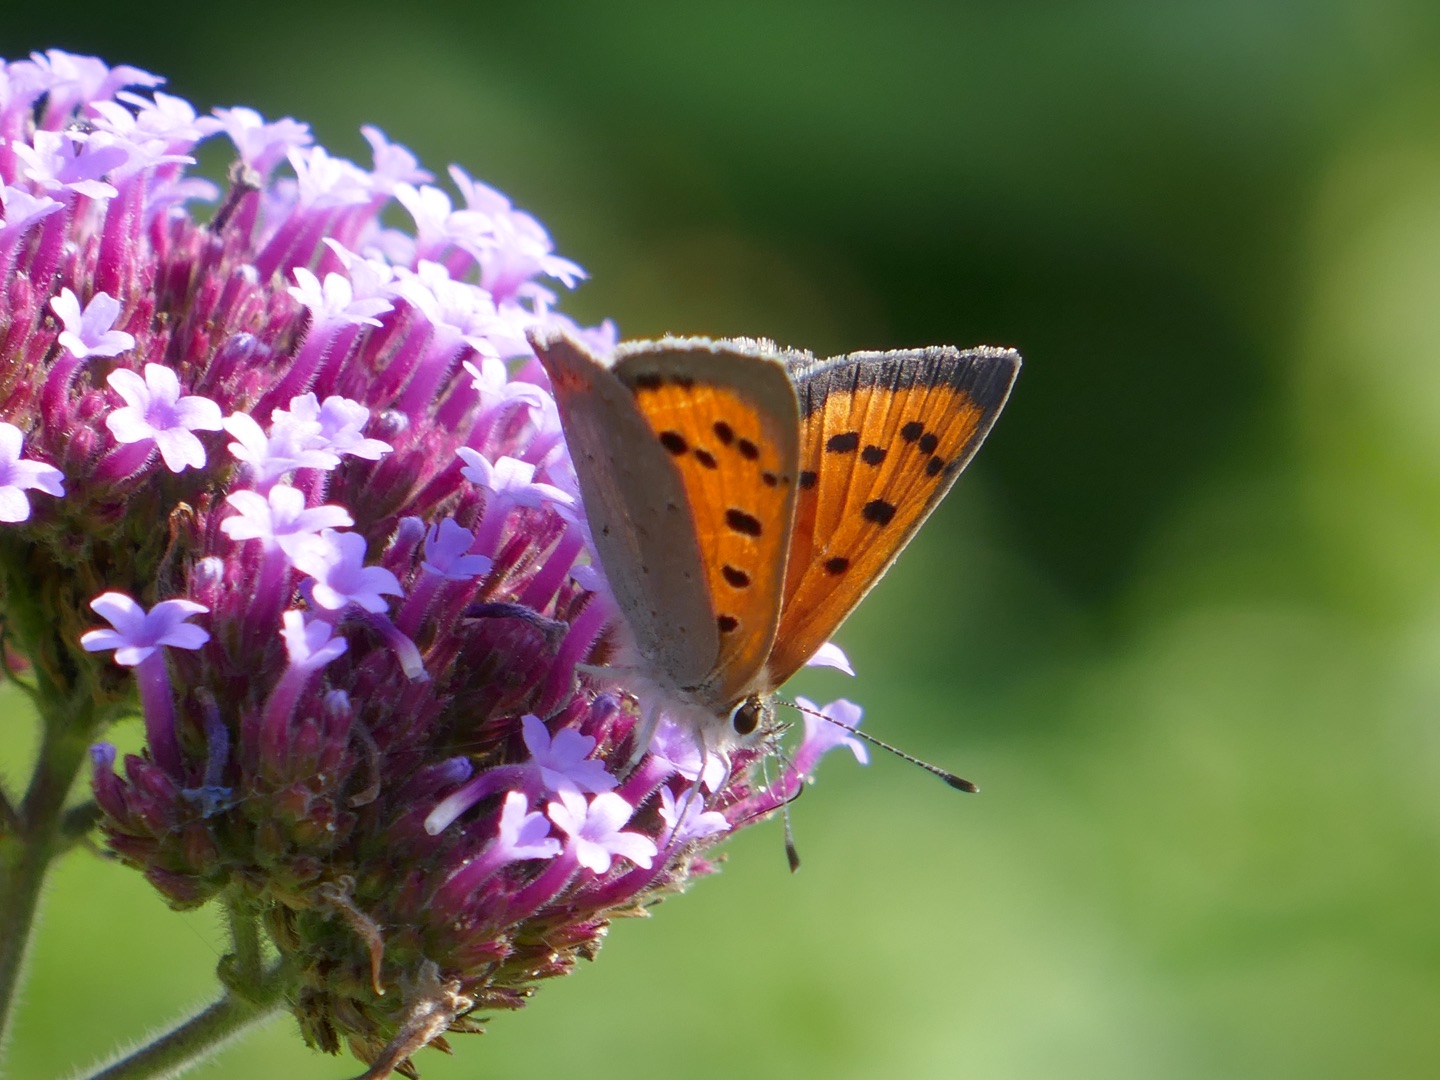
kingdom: Animalia
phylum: Arthropoda
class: Insecta
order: Lepidoptera
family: Lycaenidae
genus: Lycaena
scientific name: Lycaena phlaeas
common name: Lille ildfugl
